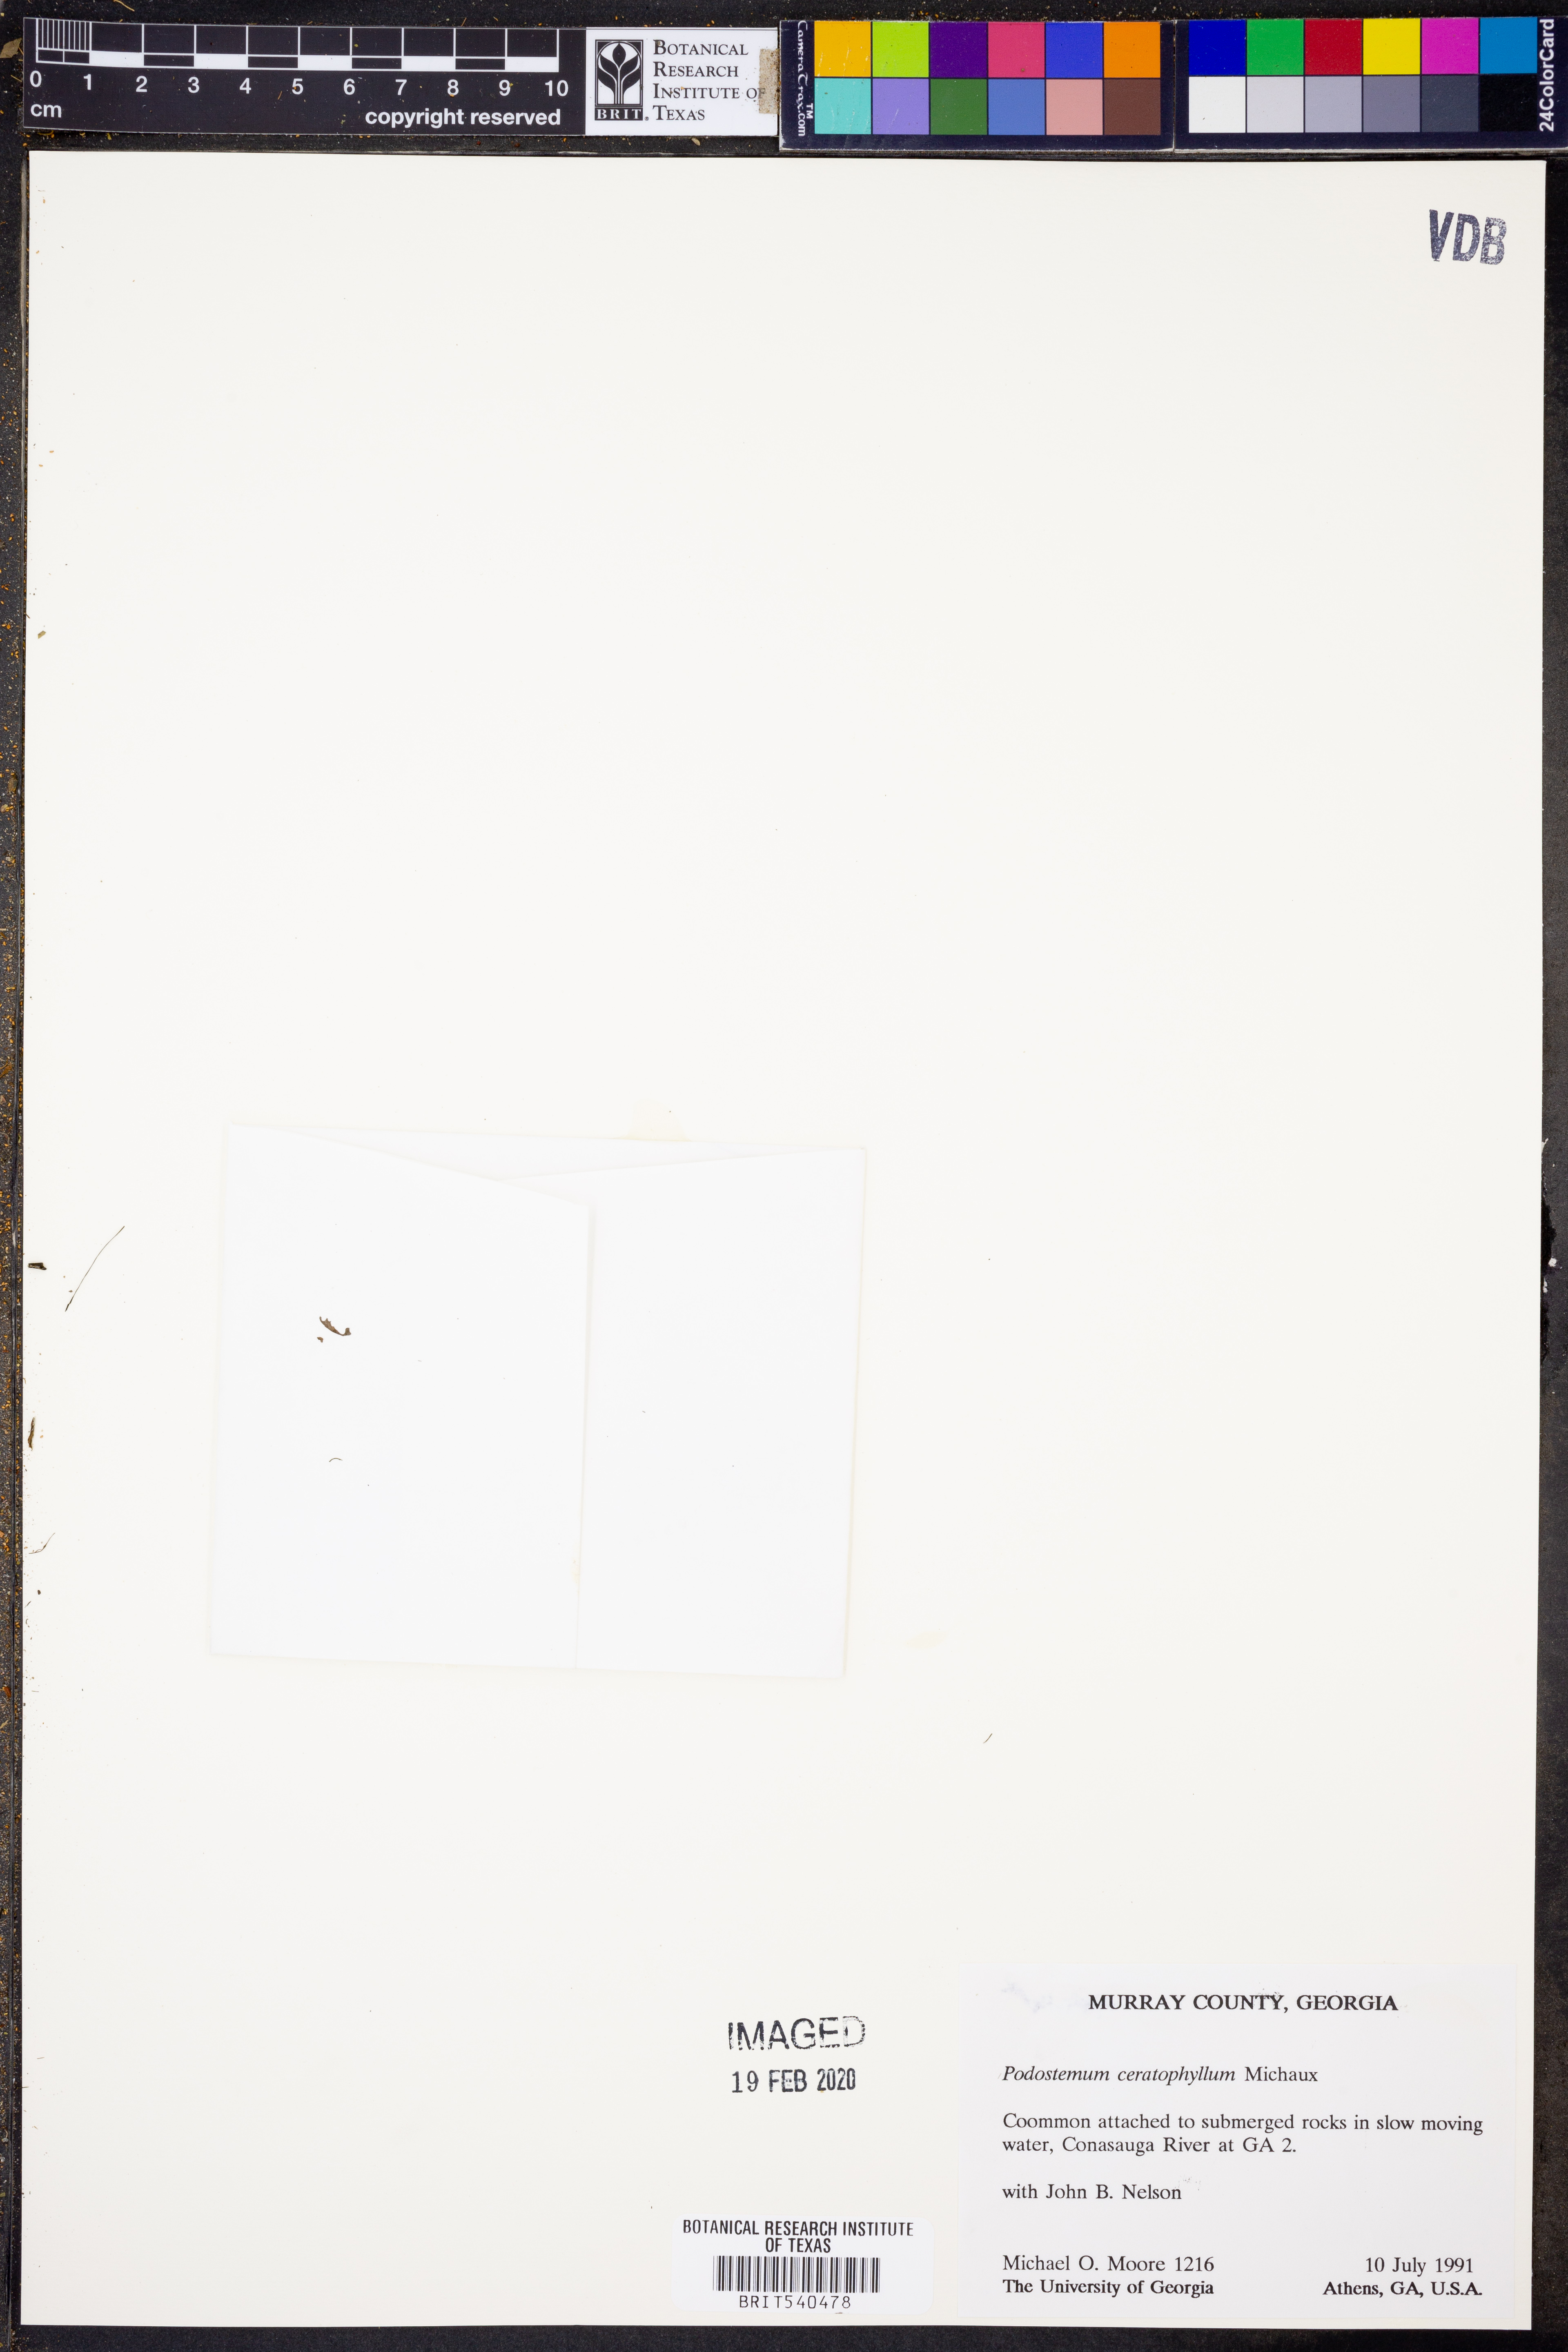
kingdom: Plantae
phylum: Tracheophyta
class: Magnoliopsida
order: Malpighiales
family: Podostemaceae
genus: Podostemum
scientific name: Podostemum ceratophyllum
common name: Horn-leaved riverweed
